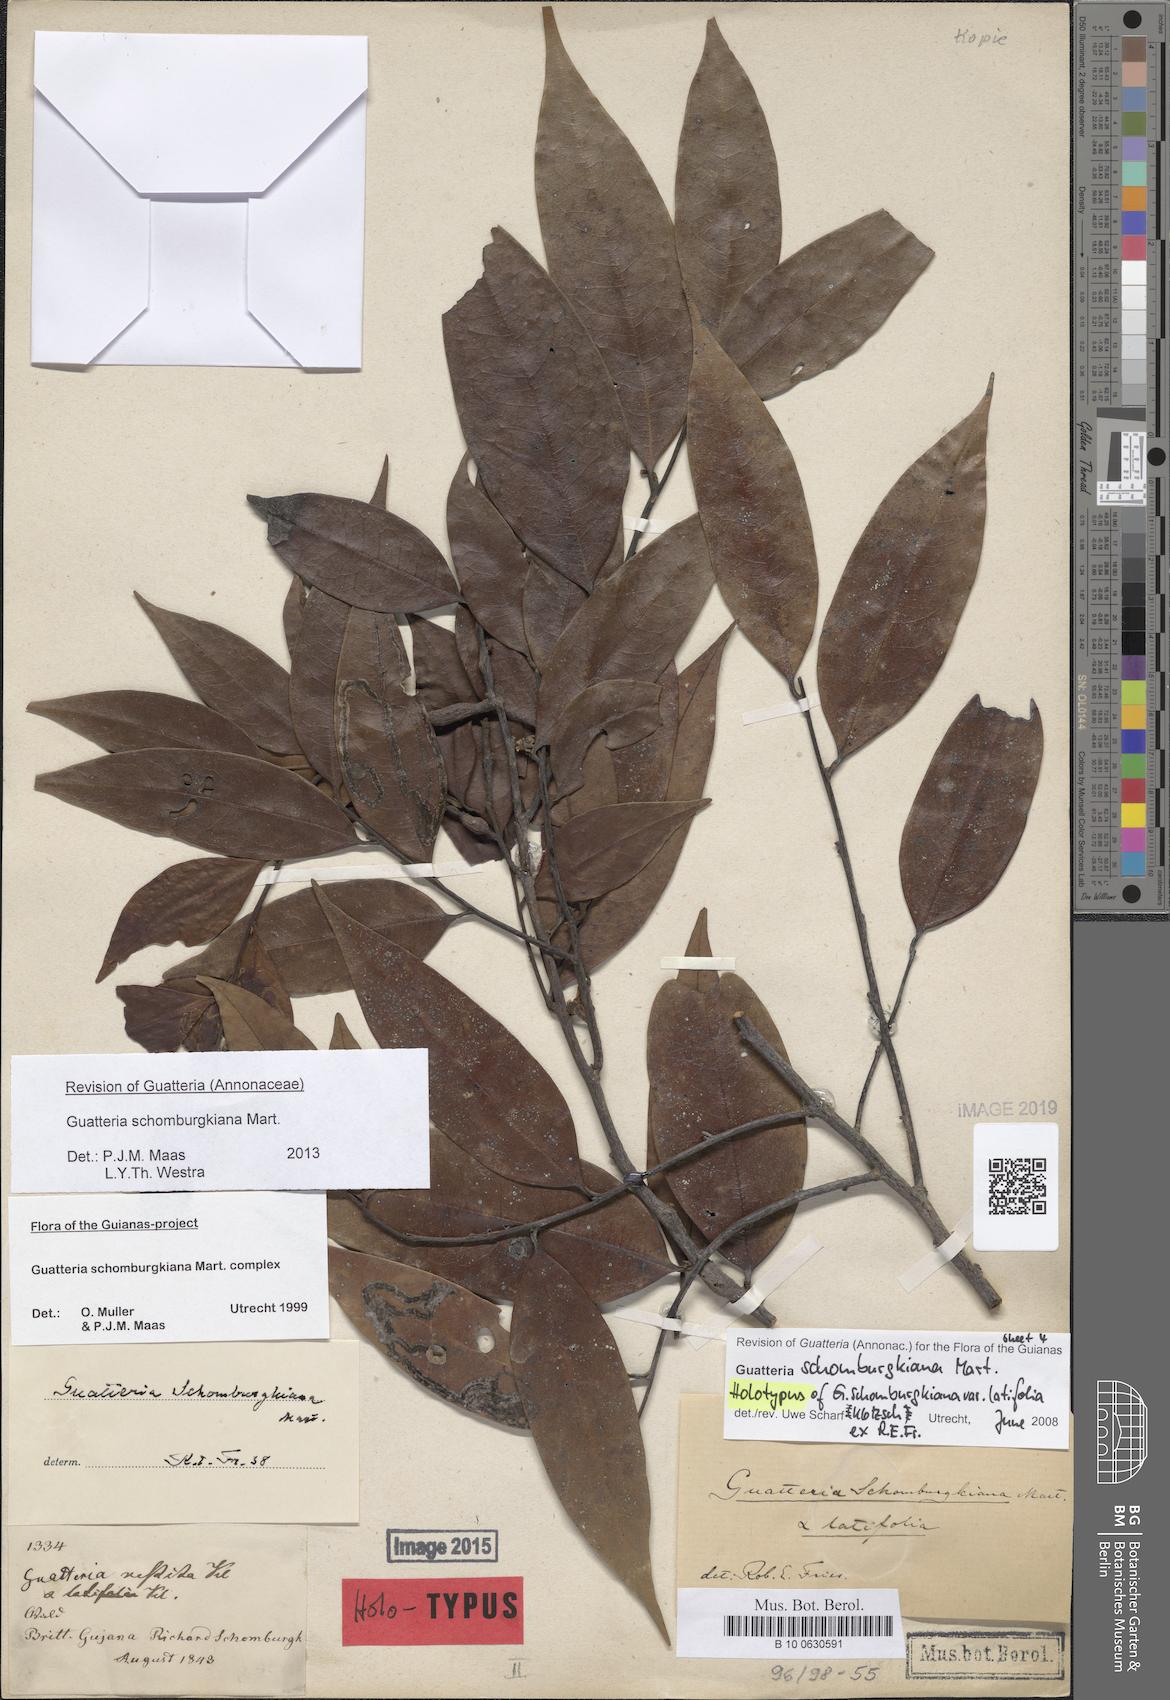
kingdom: Plantae
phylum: Tracheophyta
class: Magnoliopsida
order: Magnoliales
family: Annonaceae
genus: Guatteria
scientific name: Guatteria schomburgkiana
